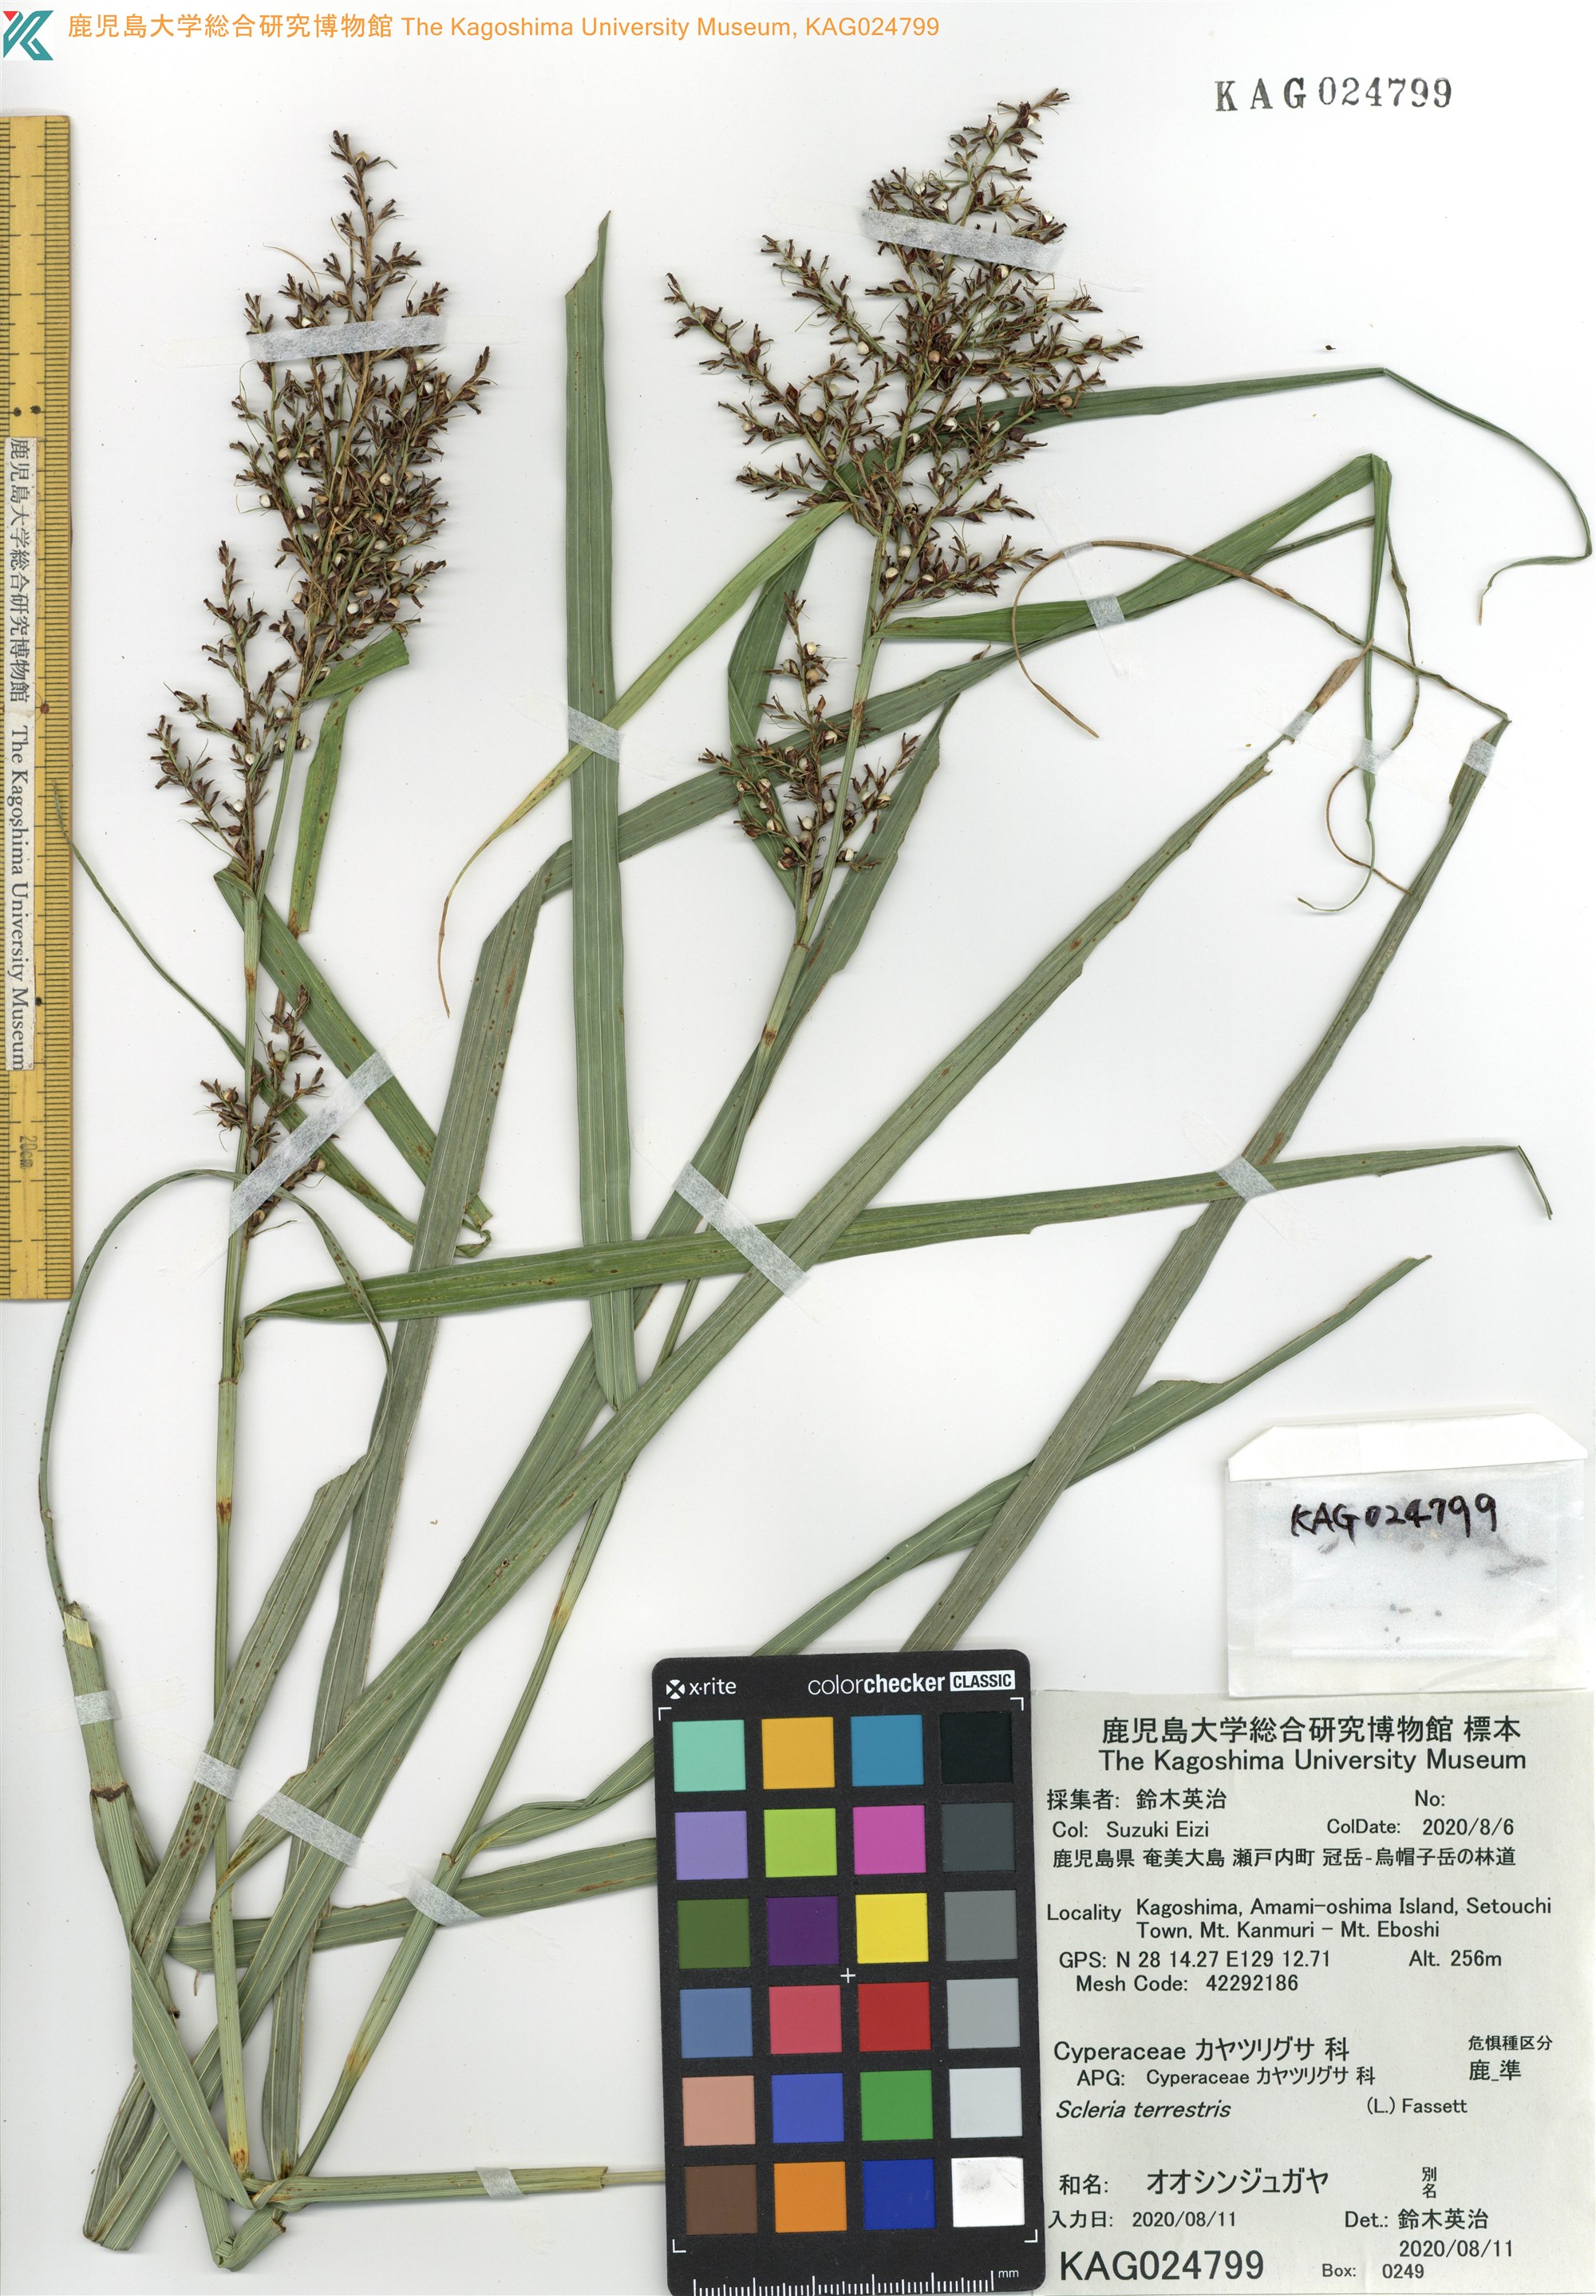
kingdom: Plantae
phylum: Tracheophyta
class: Liliopsida
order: Poales
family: Cyperaceae
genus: Scleria
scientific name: Scleria terrestris
